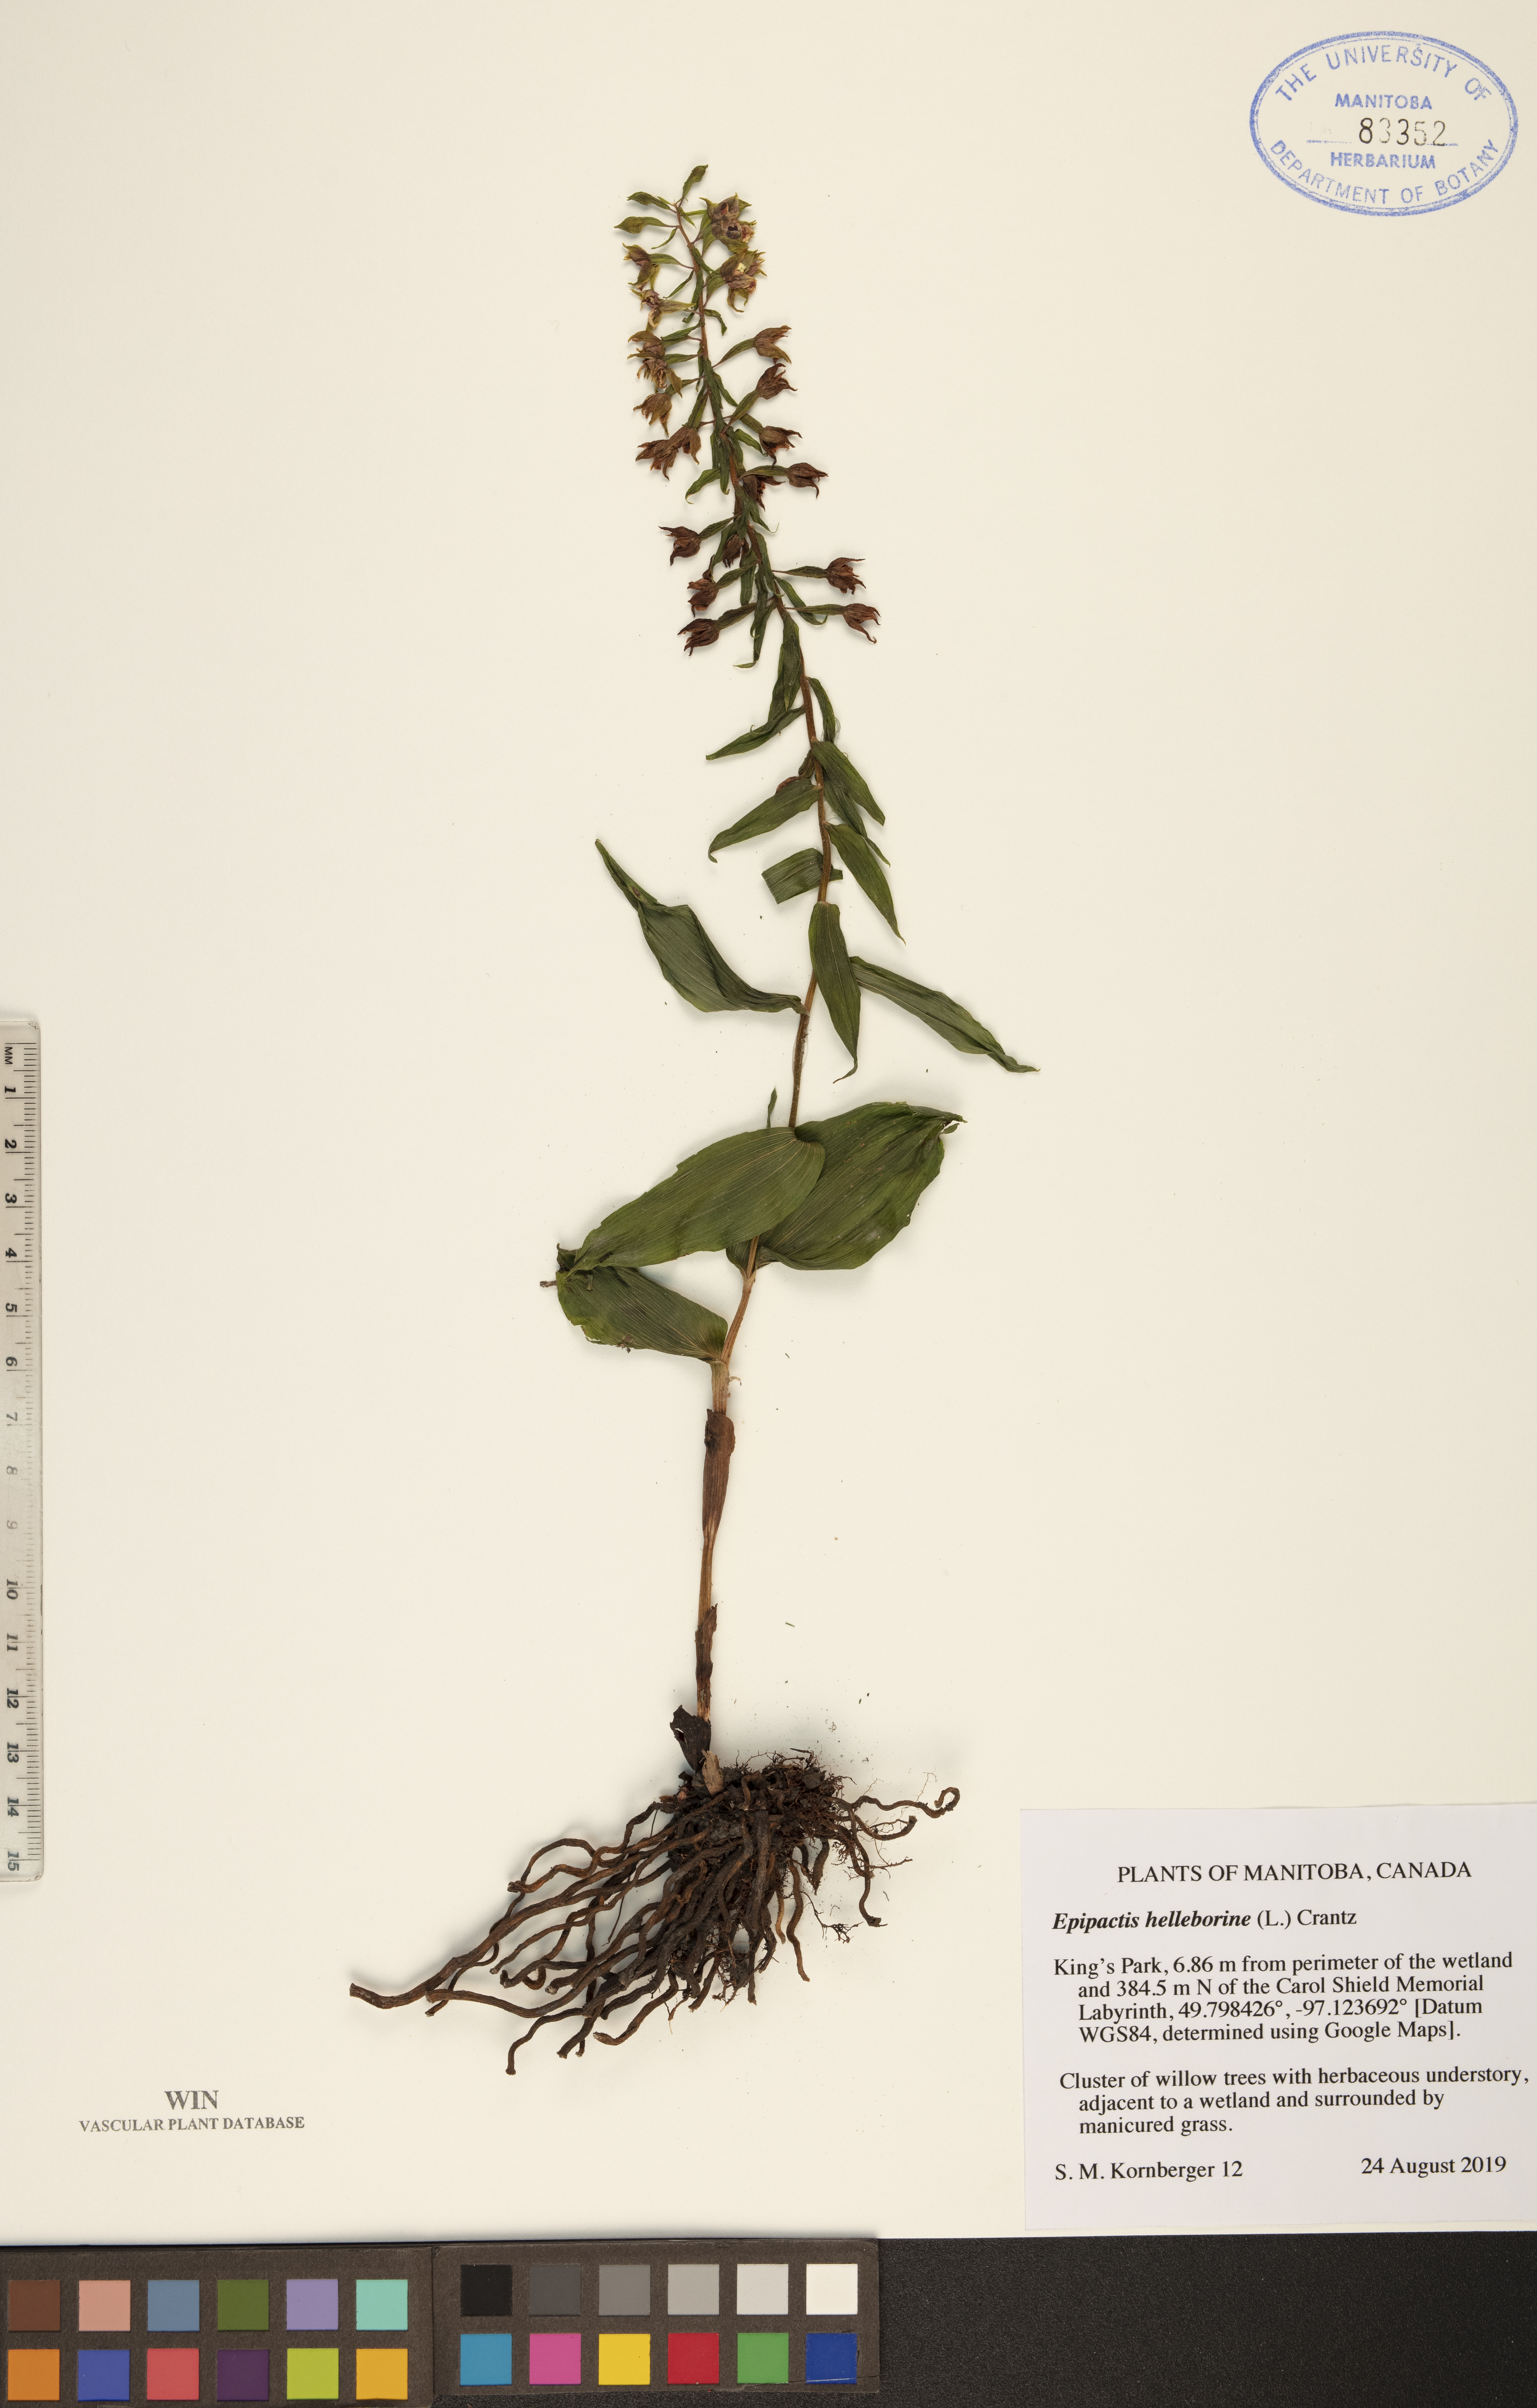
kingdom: Plantae
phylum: Tracheophyta
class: Liliopsida
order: Asparagales
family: Orchidaceae
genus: Epipactis
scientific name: Epipactis helleborine
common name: Broad-leaved helleborine
